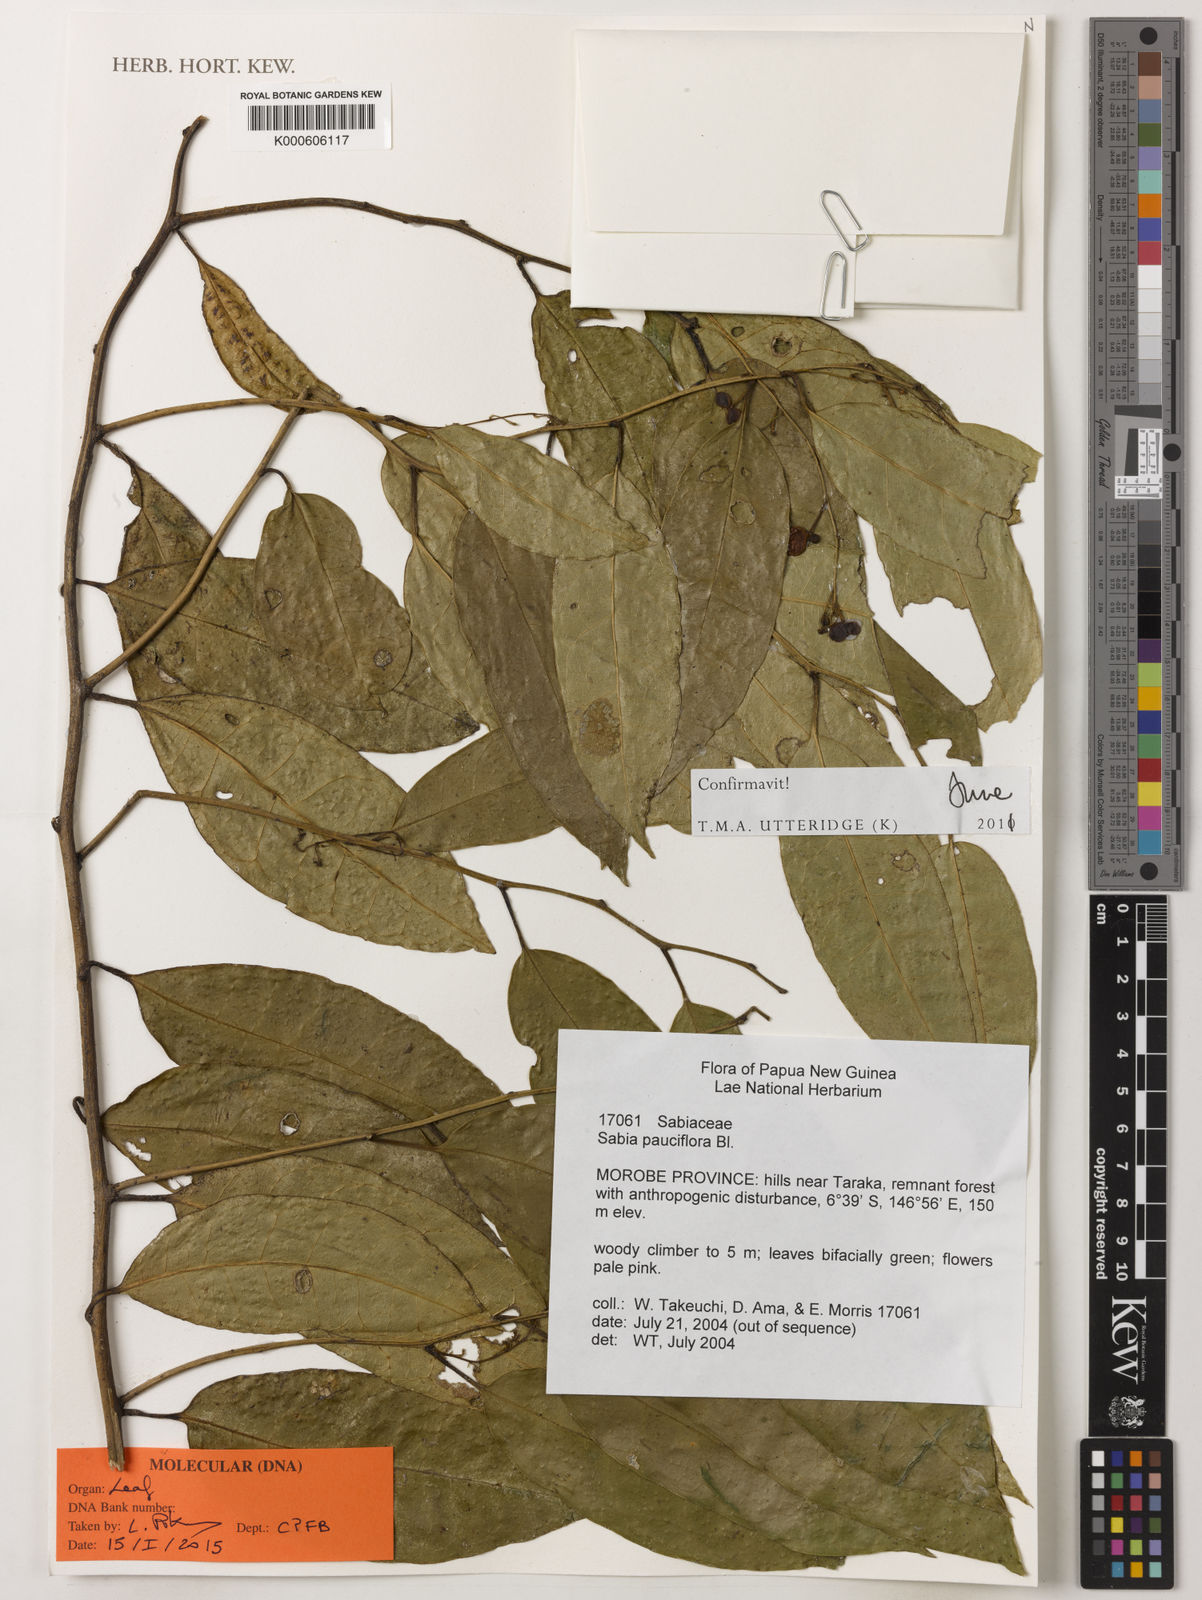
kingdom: Plantae
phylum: Tracheophyta
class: Magnoliopsida
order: Proteales
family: Sabiaceae
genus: Sabia
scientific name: Sabia pauciflora
